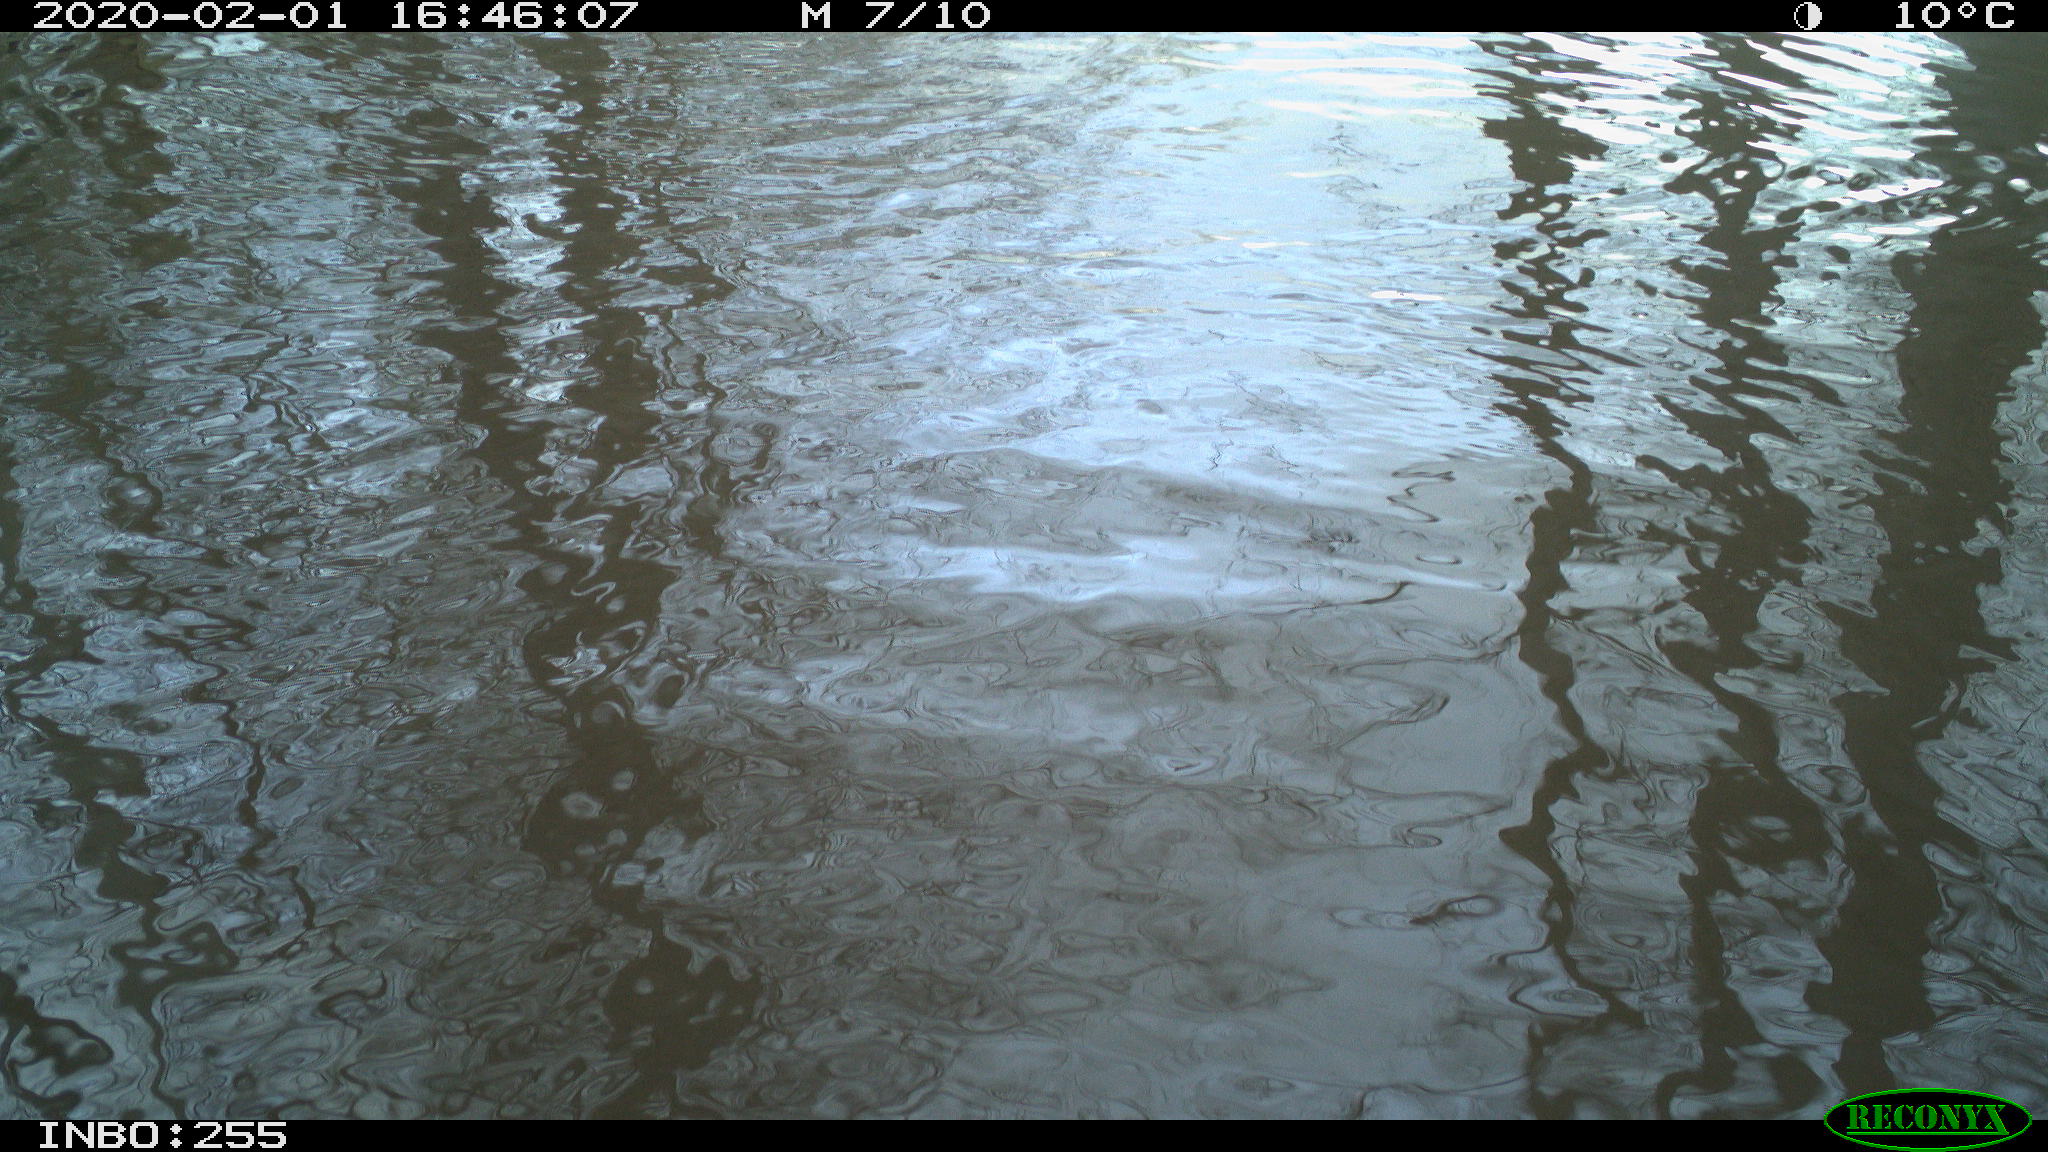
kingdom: Animalia
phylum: Chordata
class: Aves
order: Gruiformes
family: Rallidae
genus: Gallinula
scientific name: Gallinula chloropus
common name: Common moorhen
